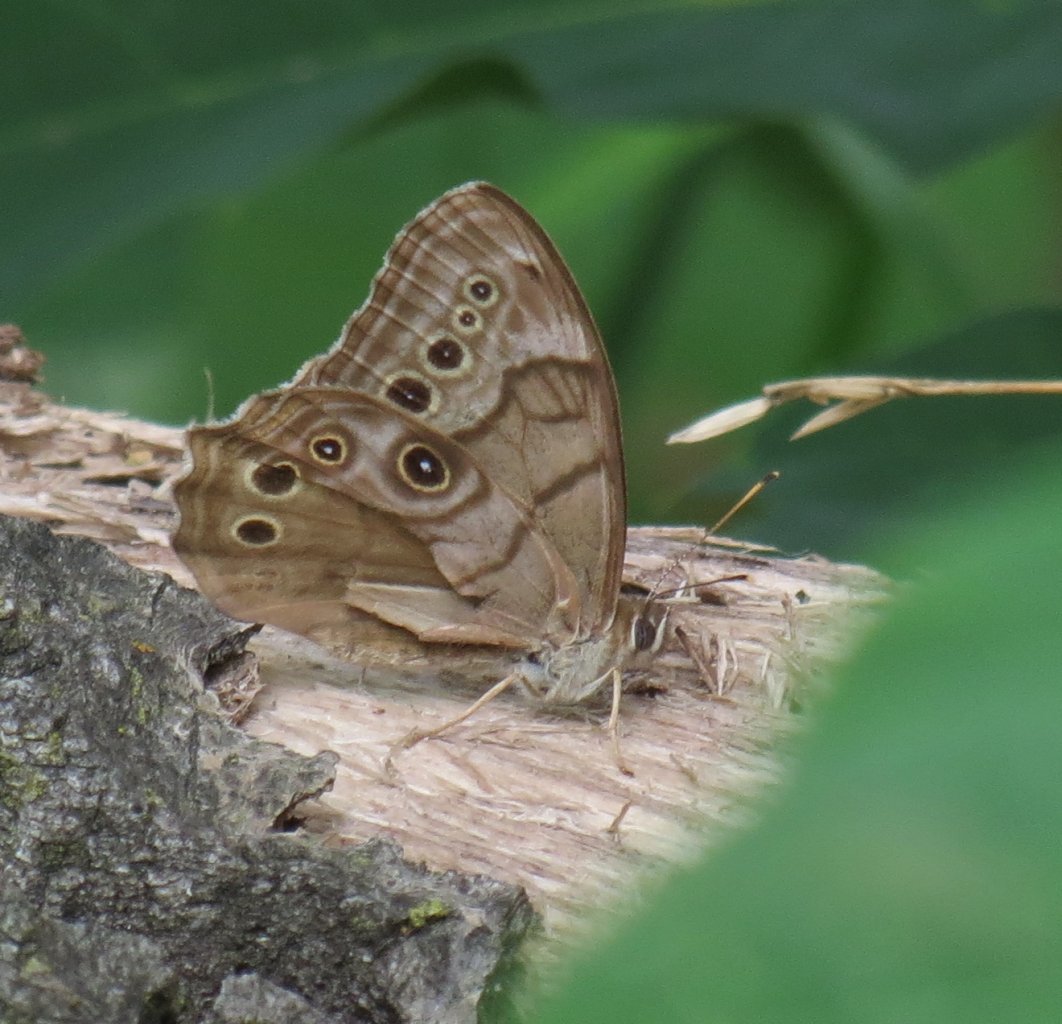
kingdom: Animalia
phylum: Arthropoda
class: Insecta
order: Lepidoptera
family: Nymphalidae
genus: Lethe
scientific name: Lethe anthedon
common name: Northern Pearly-Eye
